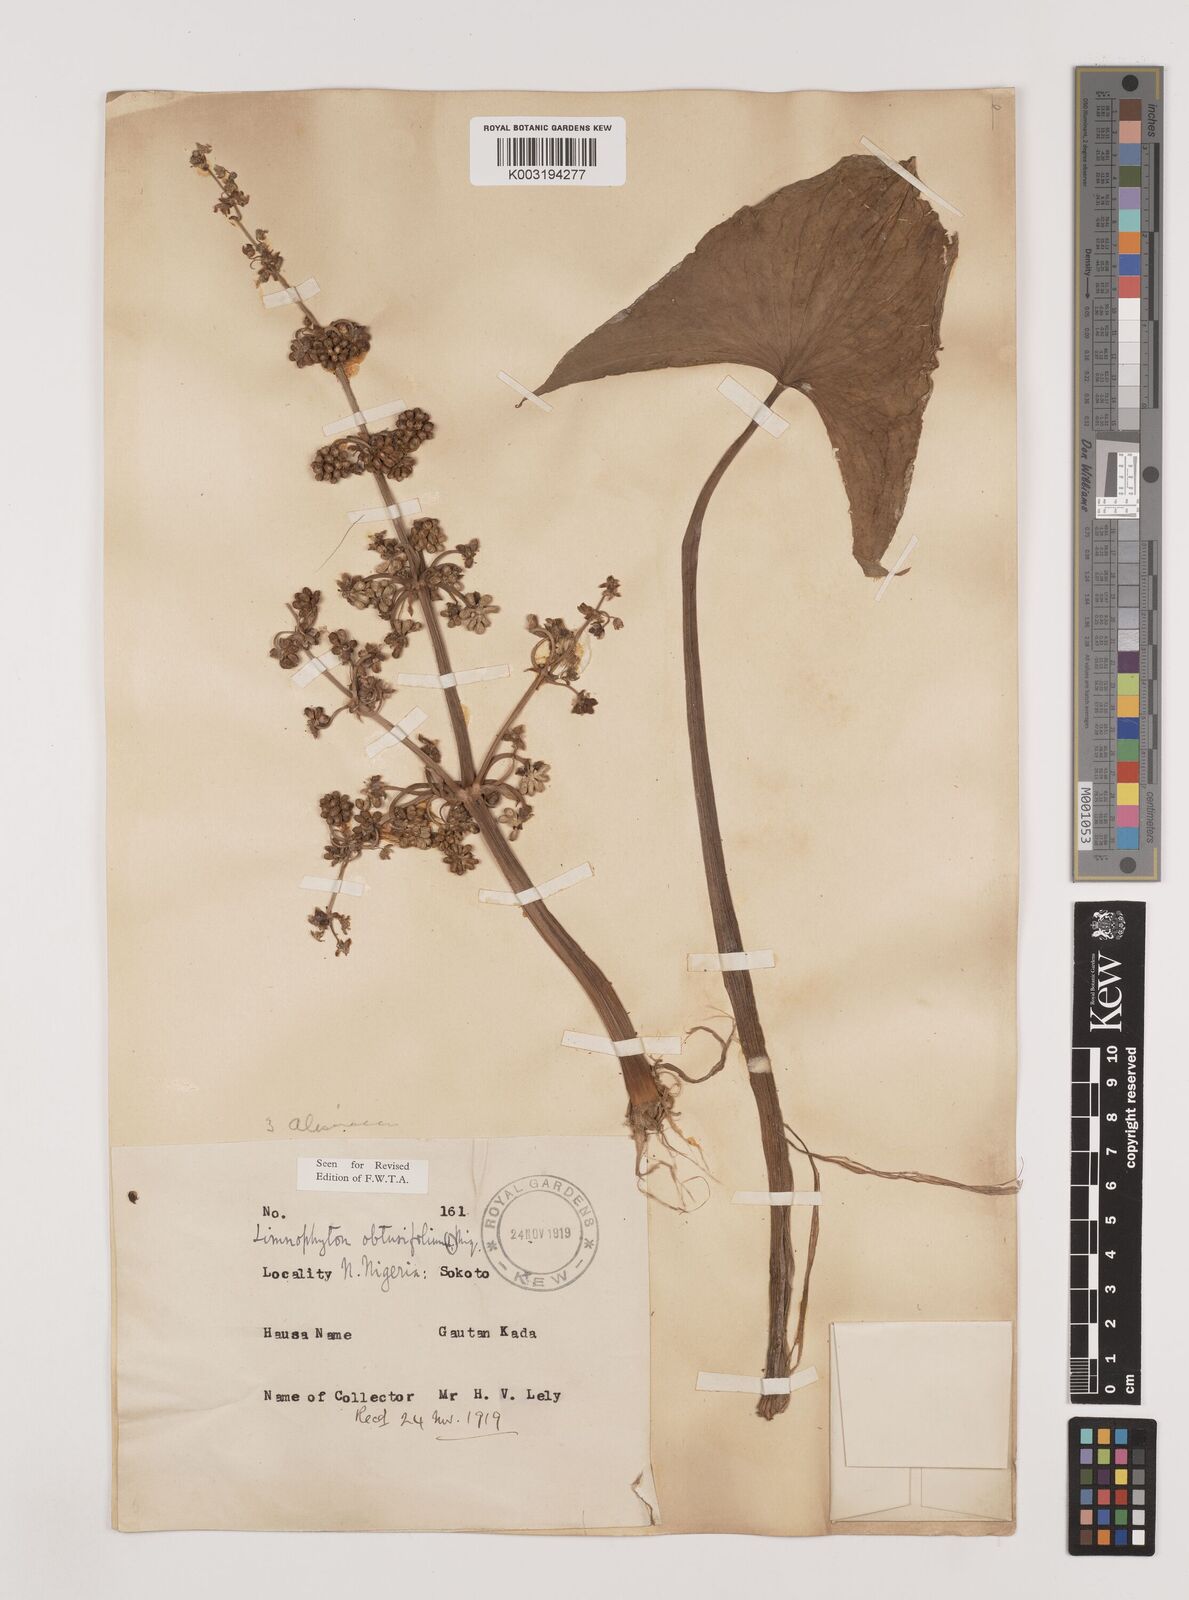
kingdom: Plantae
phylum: Tracheophyta
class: Liliopsida
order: Alismatales
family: Alismataceae
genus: Limnophyton
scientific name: Limnophyton obtusifolium
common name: Arrow head
